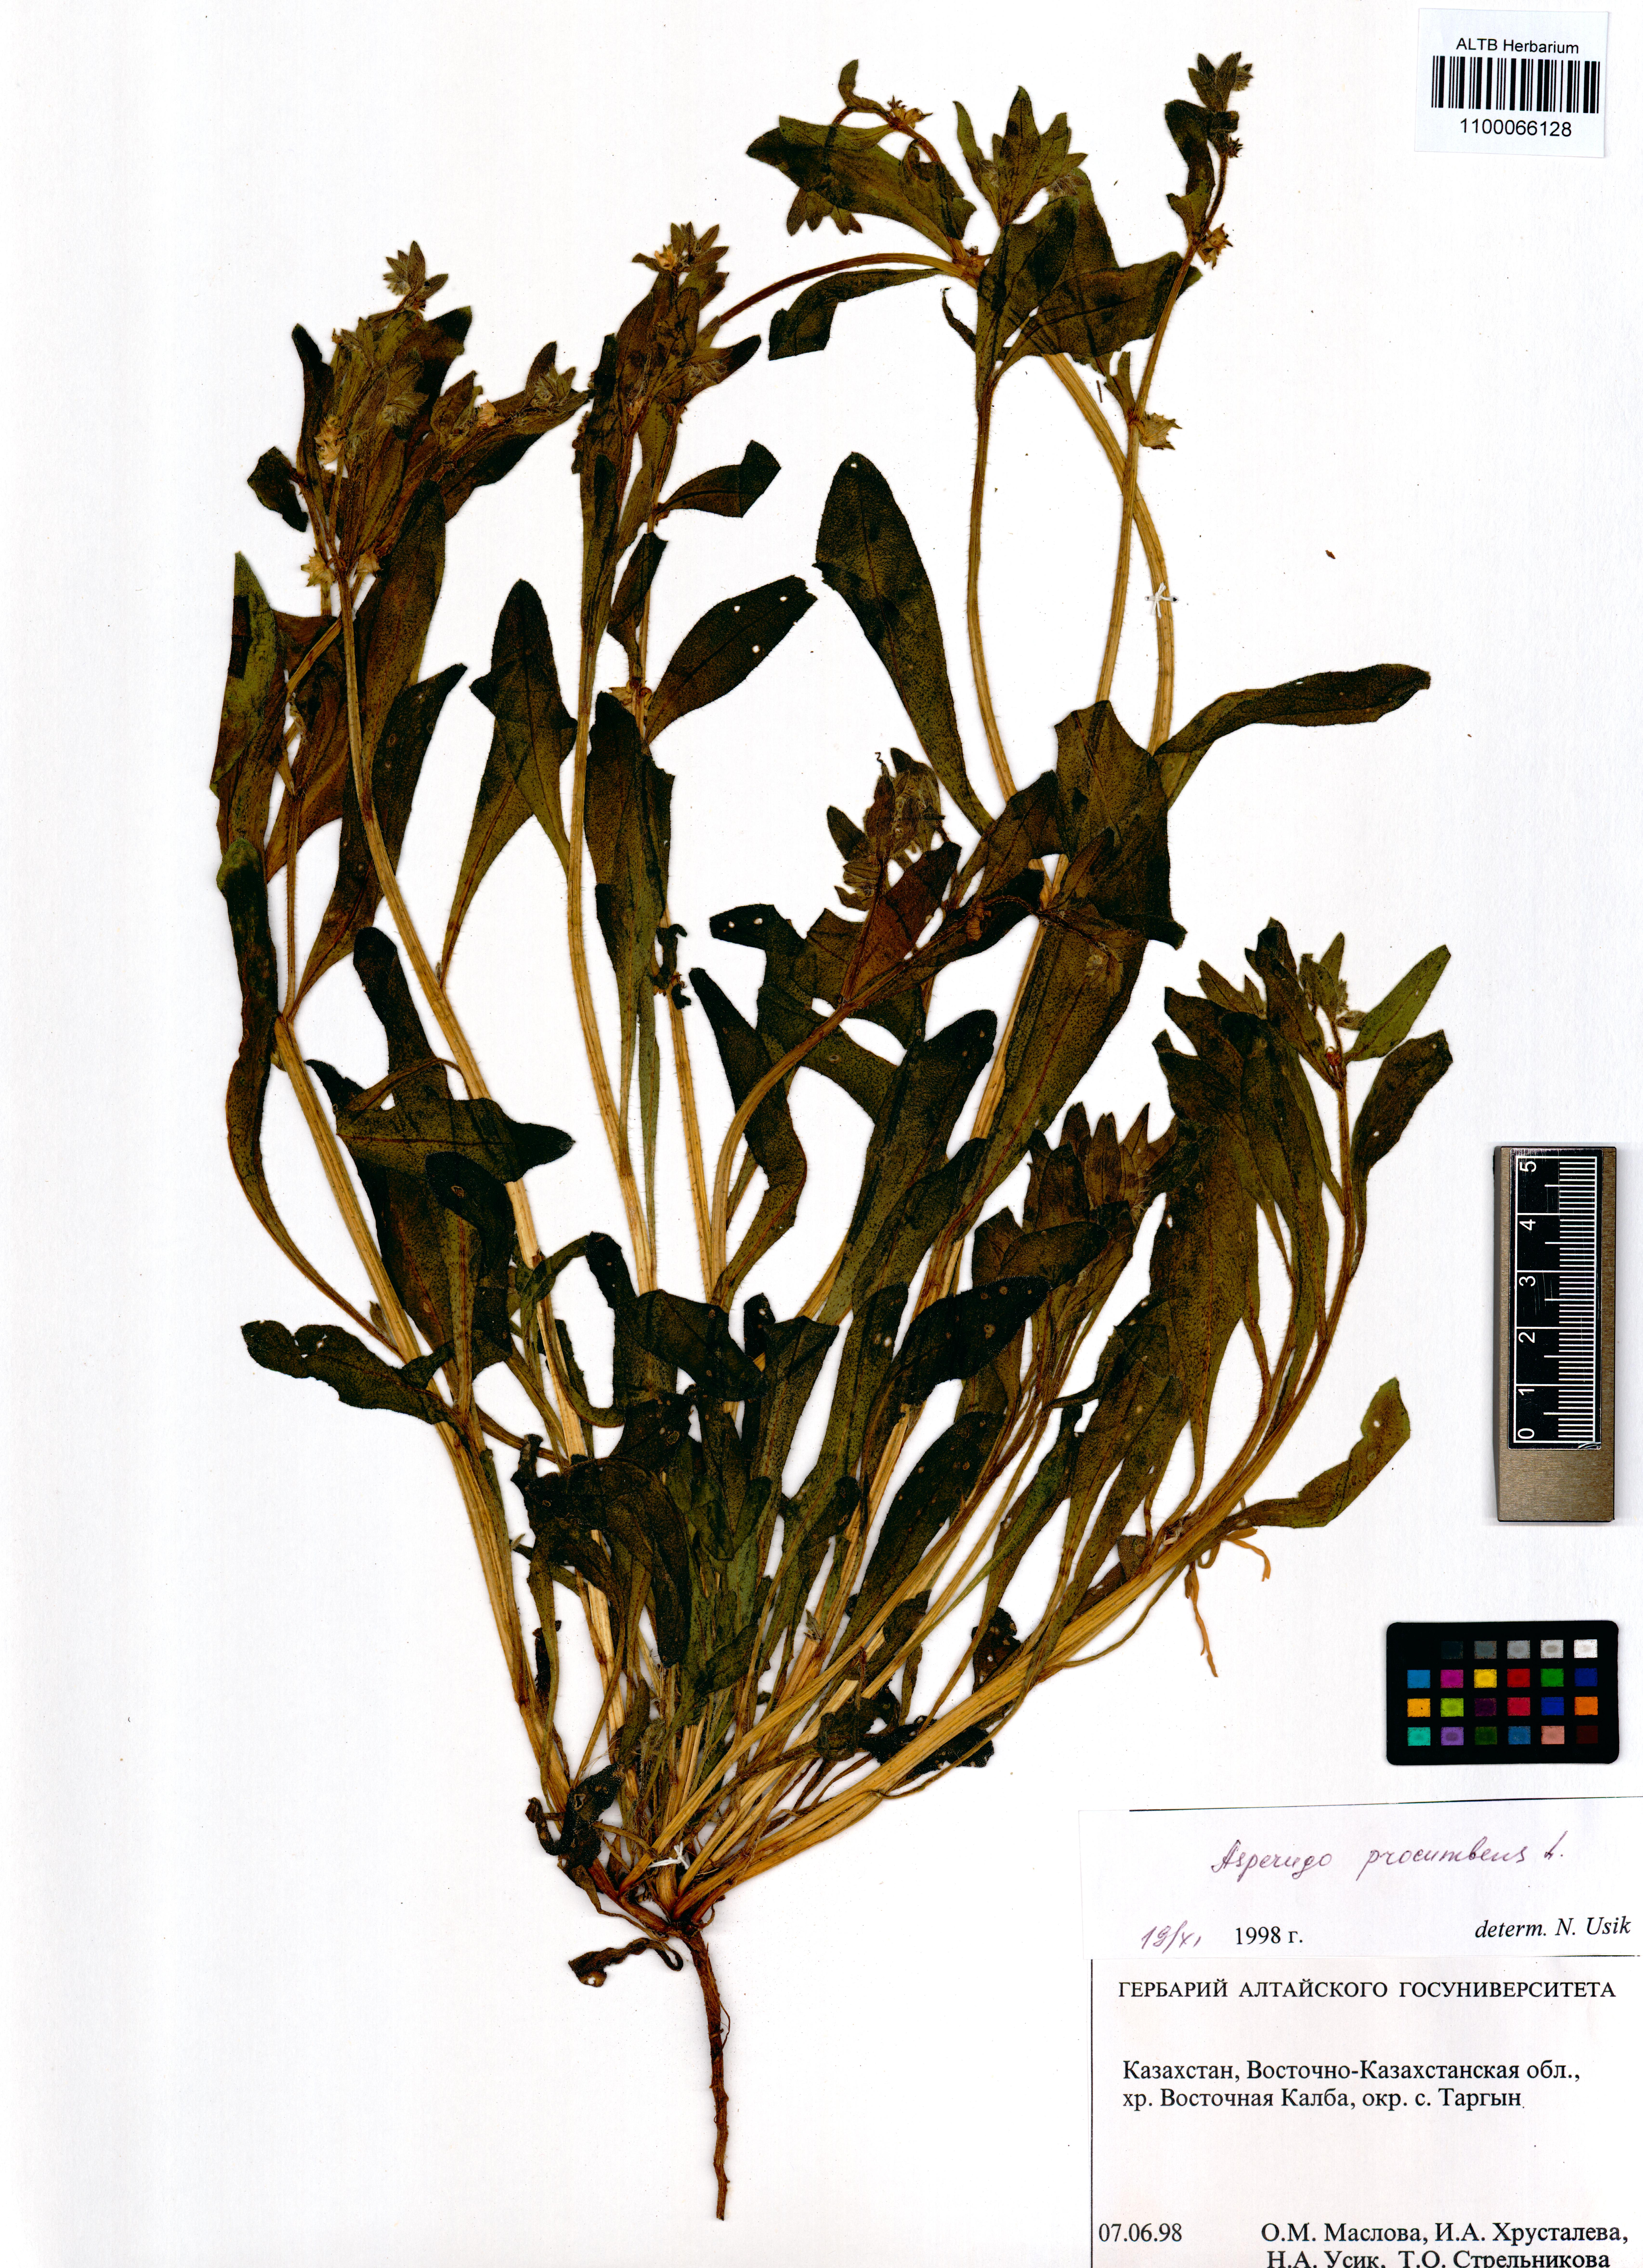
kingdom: Plantae
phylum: Tracheophyta
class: Magnoliopsida
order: Boraginales
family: Boraginaceae
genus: Asperugo
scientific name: Asperugo procumbens
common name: Madwort
